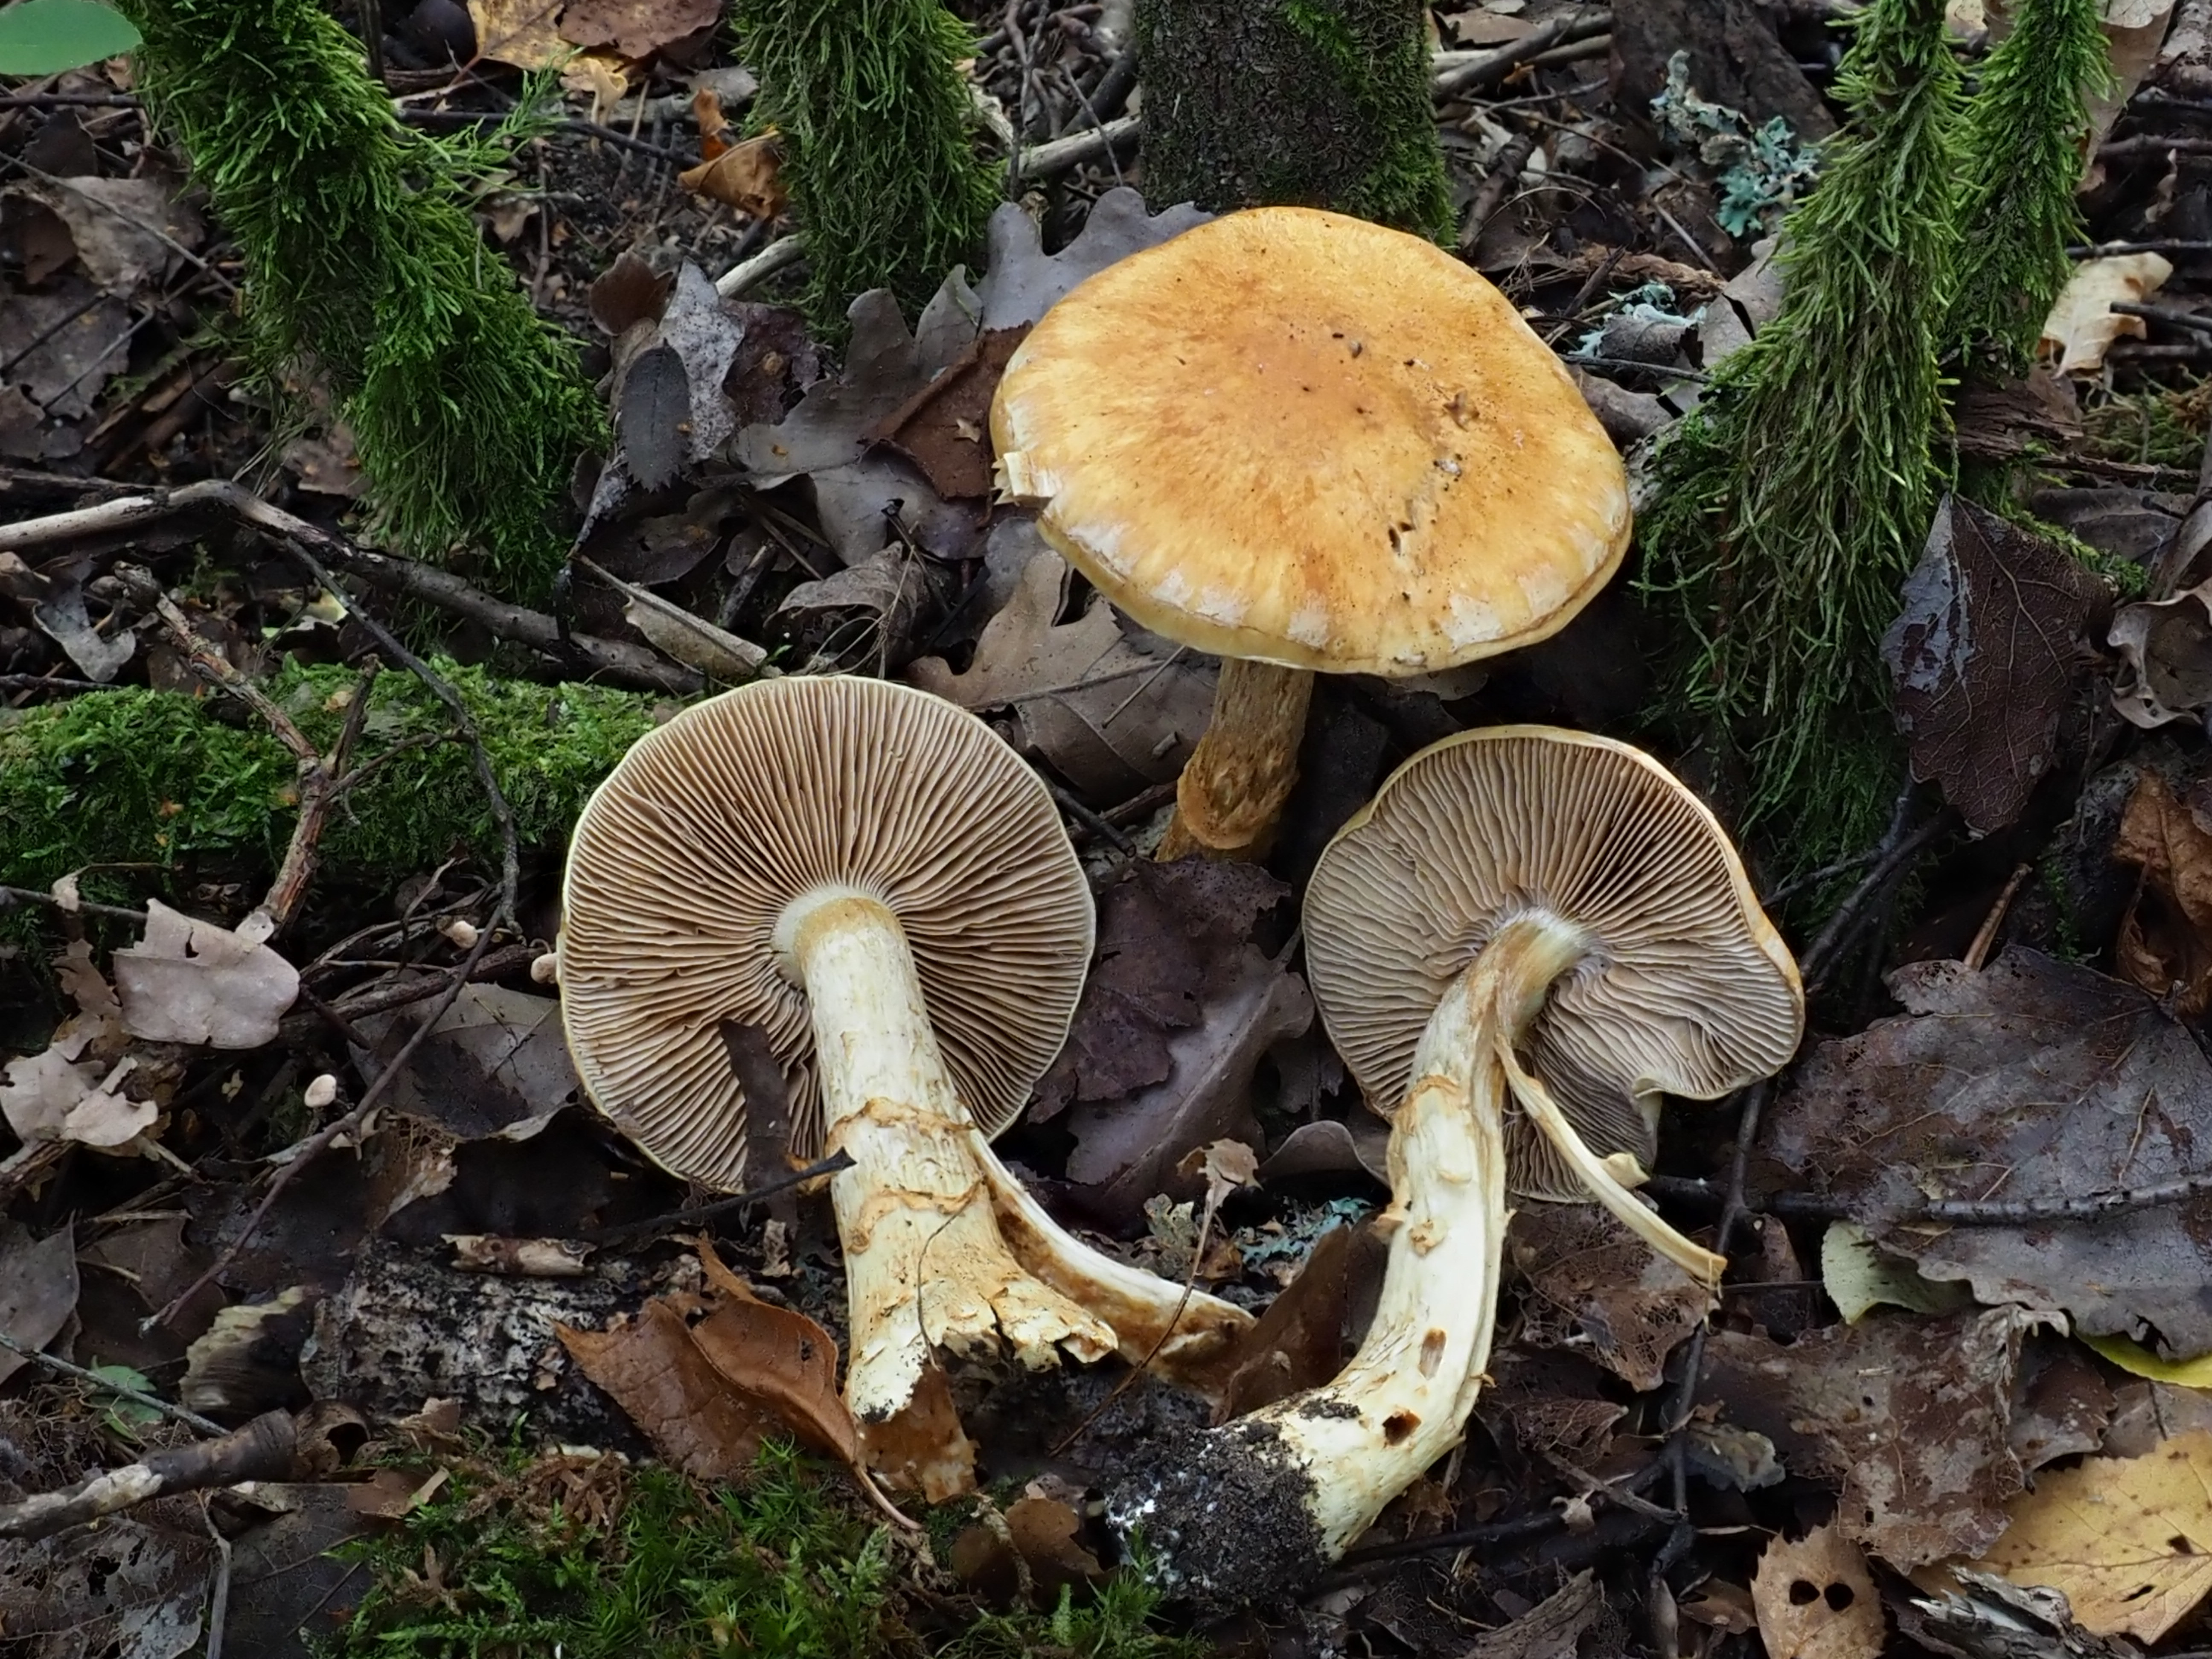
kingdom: Fungi
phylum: Basidiomycota
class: Agaricomycetes
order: Agaricales
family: Cortinariaceae
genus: Phlegmacium
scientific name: Phlegmacium triumphans
